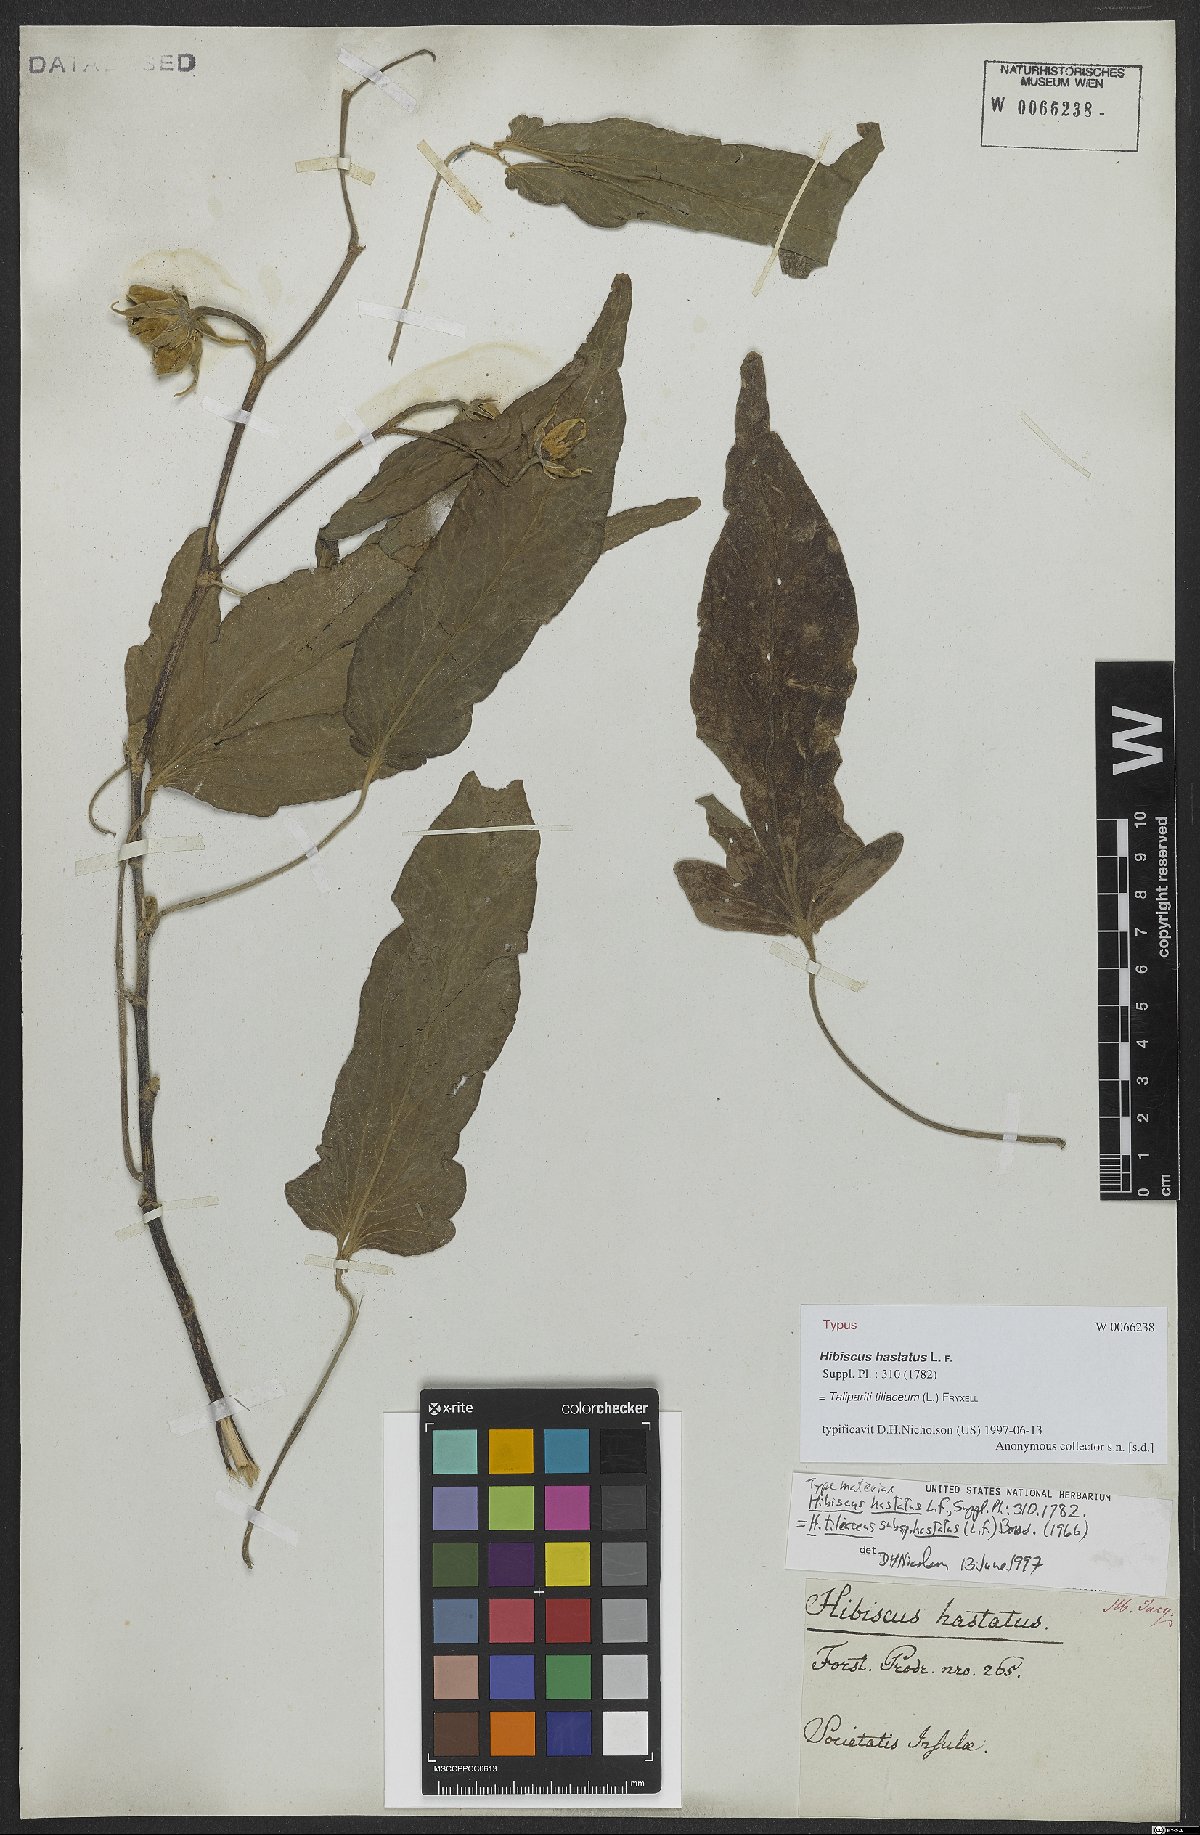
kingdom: Plantae
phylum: Tracheophyta
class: Magnoliopsida
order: Malvales
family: Malvaceae
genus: Talipariti
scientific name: Talipariti tiliaceum
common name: Sea hibiscus
